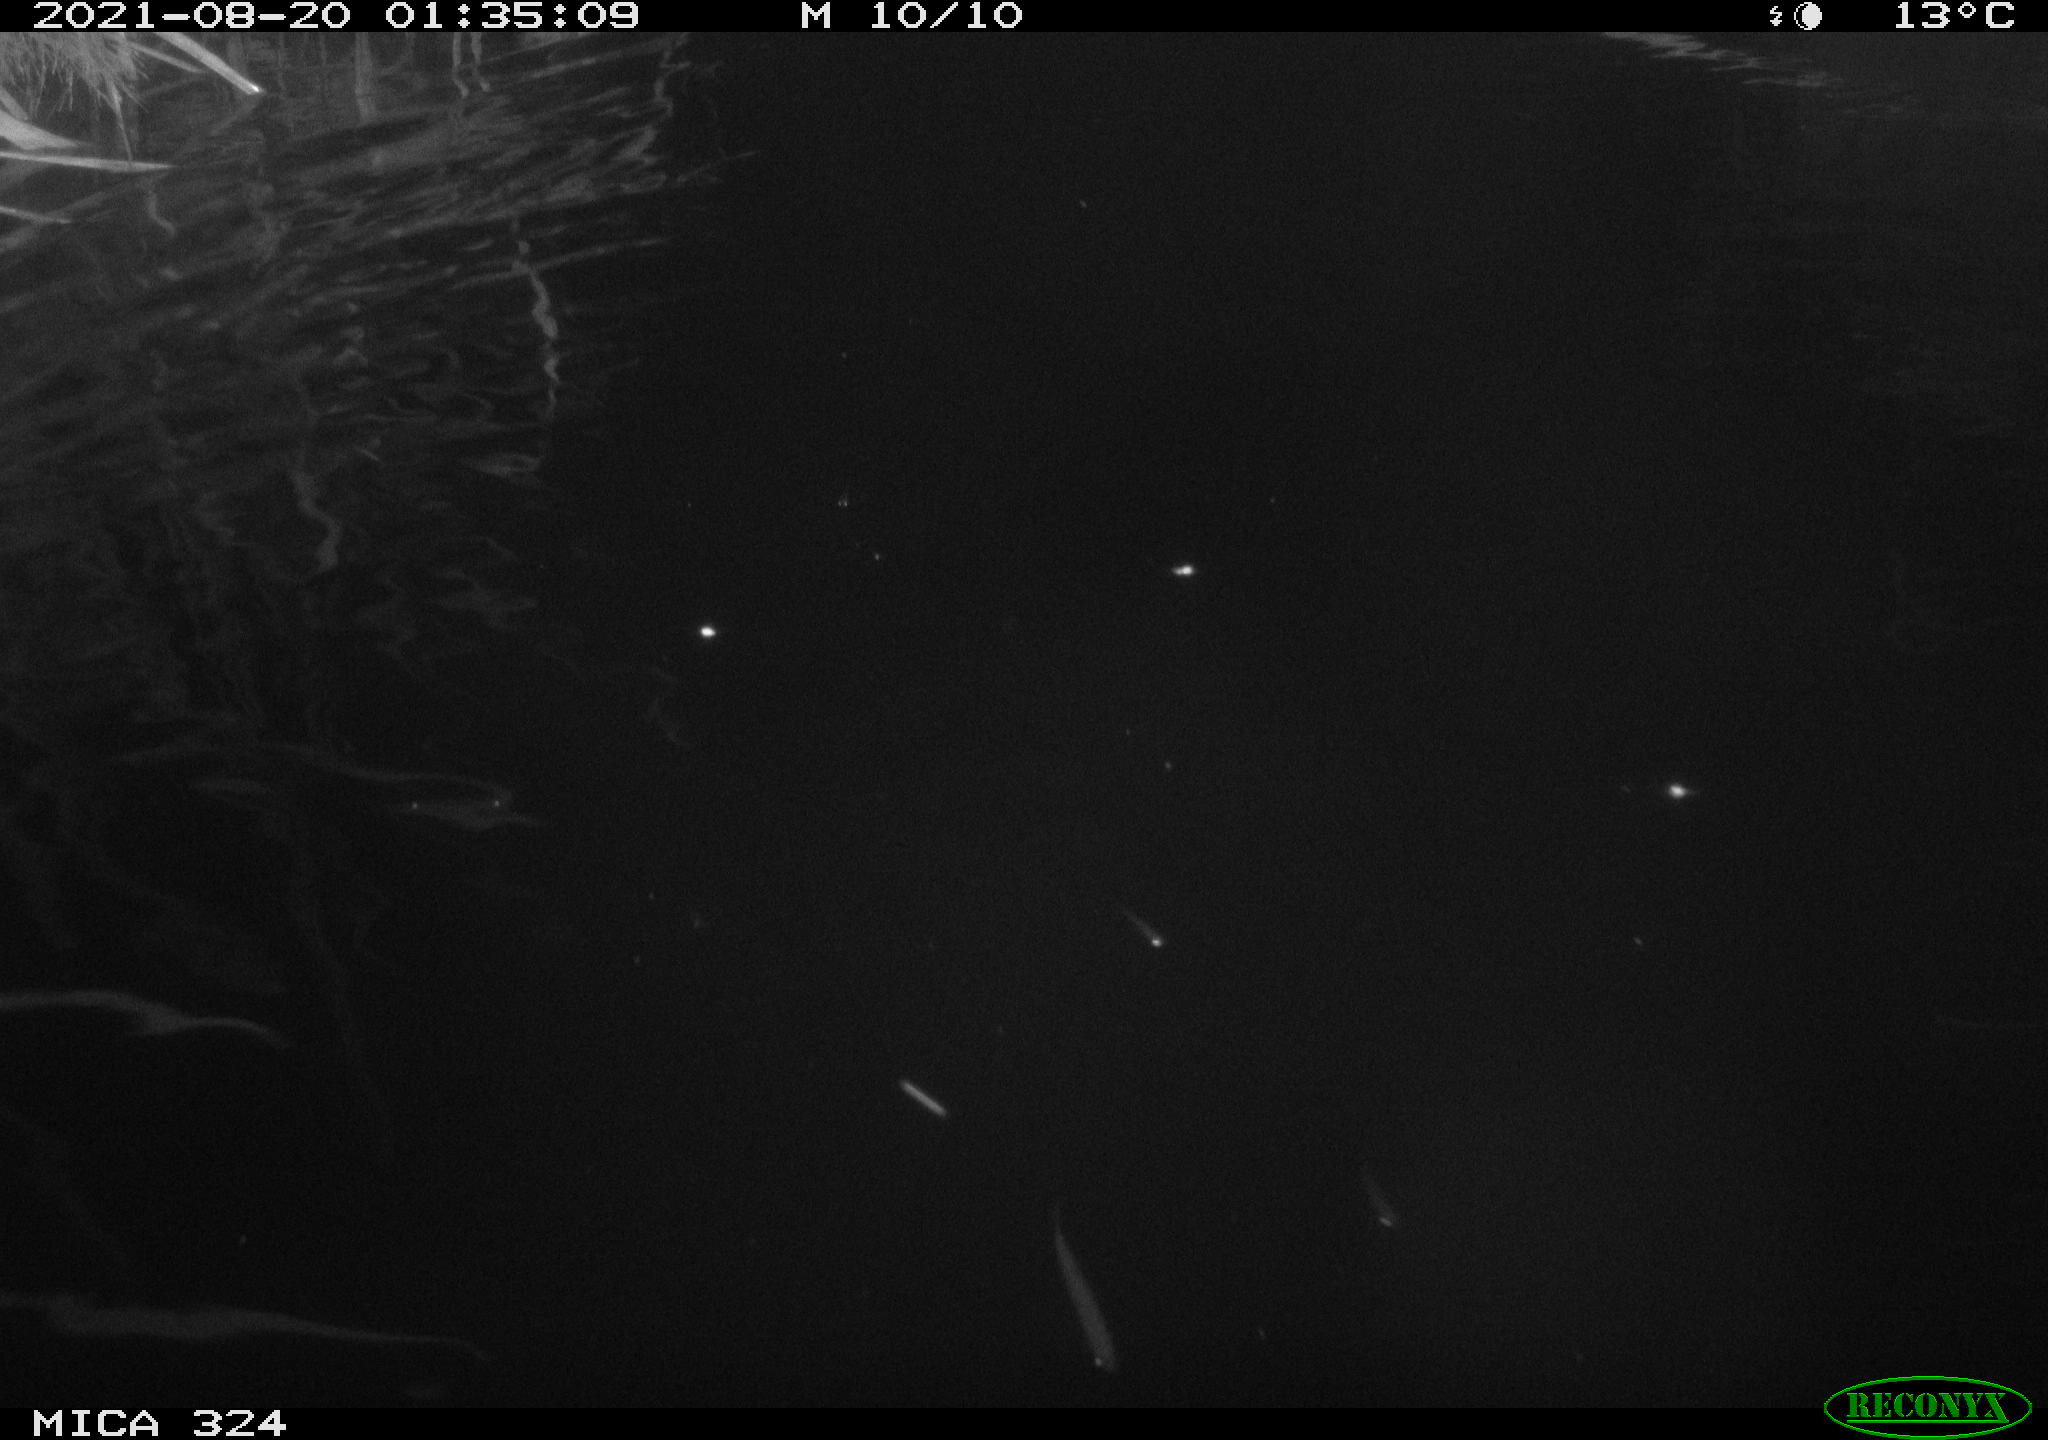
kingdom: Animalia
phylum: Chordata
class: Mammalia
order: Rodentia
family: Cricetidae
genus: Ondatra
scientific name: Ondatra zibethicus
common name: Muskrat
